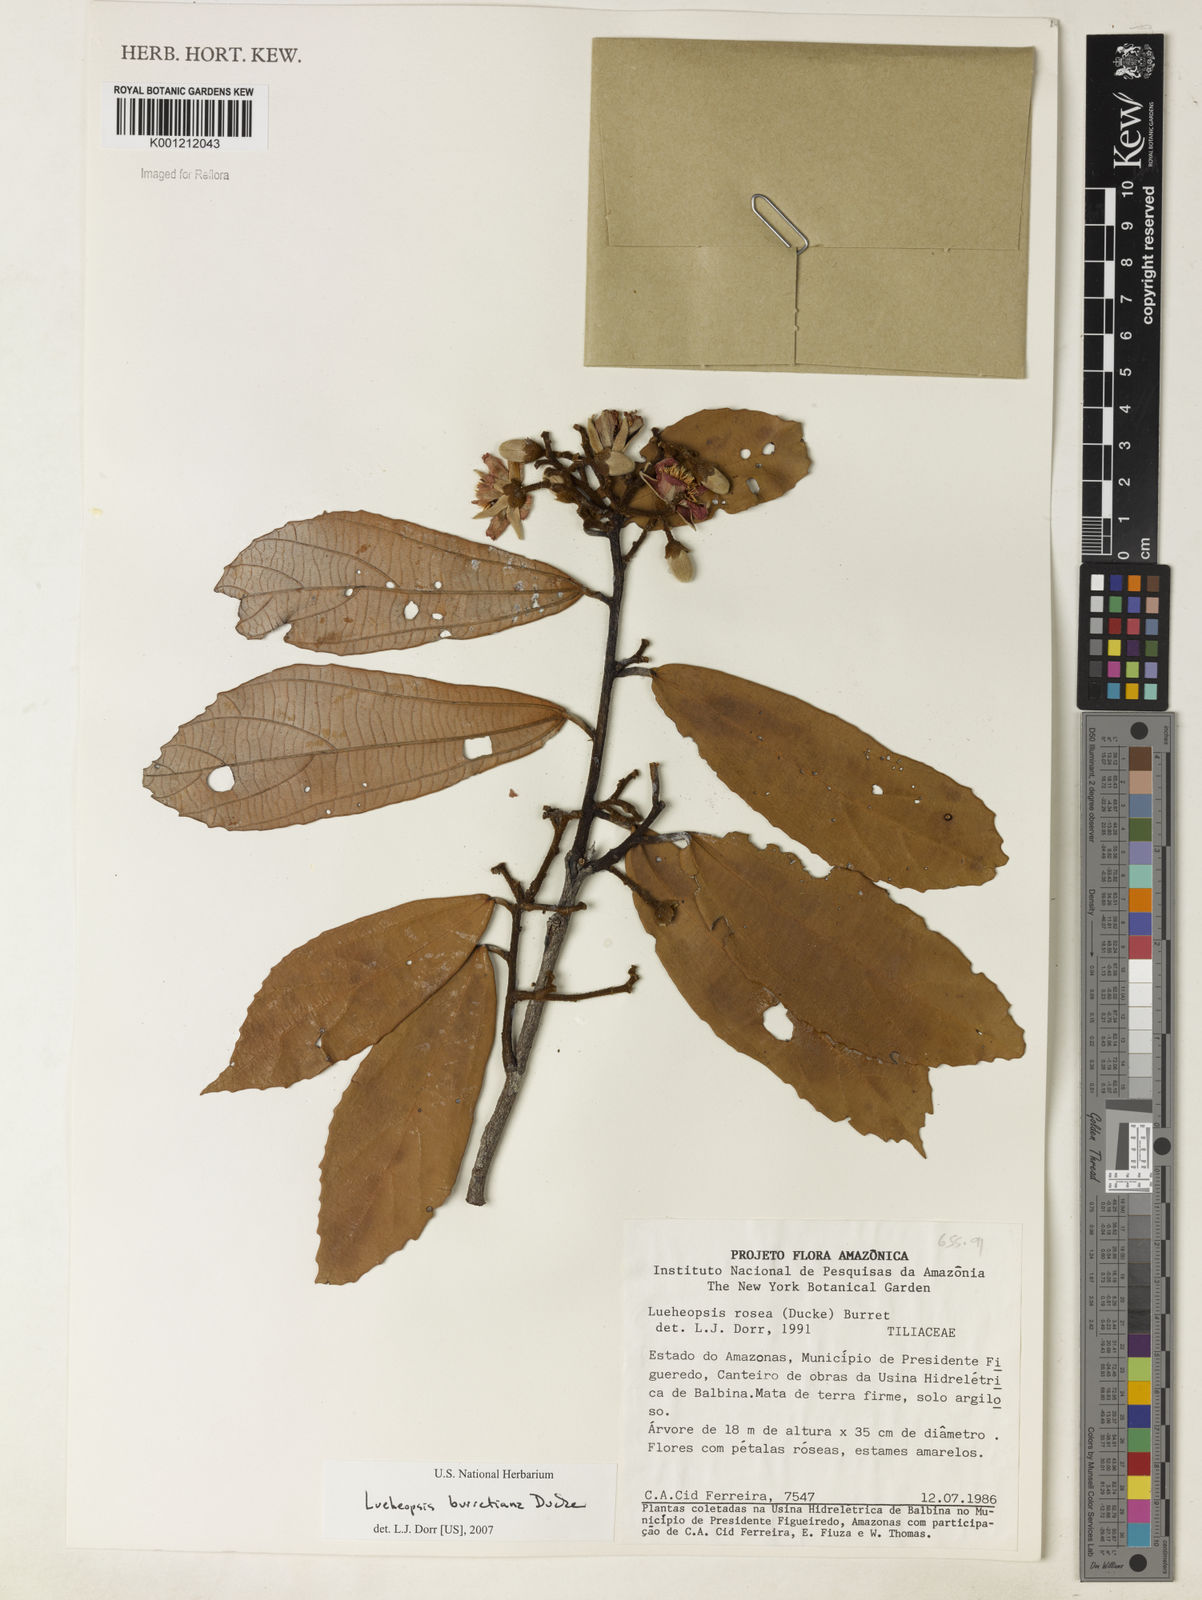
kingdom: Plantae
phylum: Tracheophyta
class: Magnoliopsida
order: Malvales
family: Malvaceae
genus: Lueheopsis
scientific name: Lueheopsis burretiana
